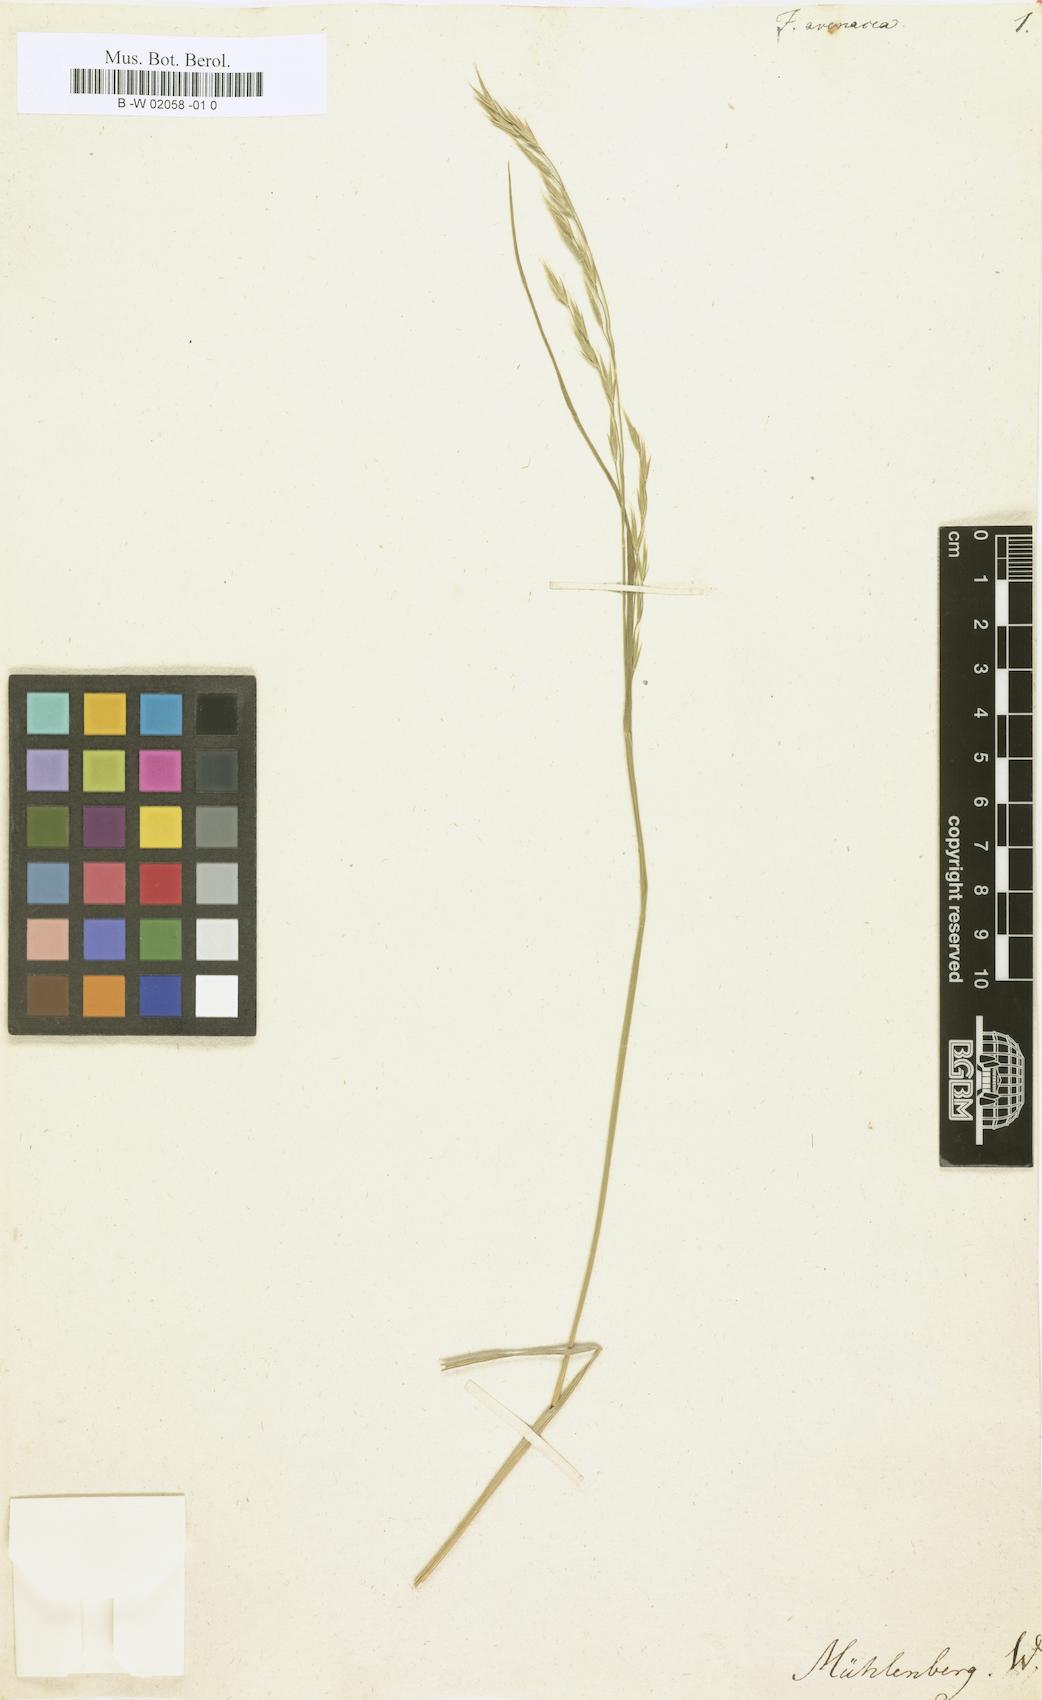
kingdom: Plantae
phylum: Tracheophyta
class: Liliopsida
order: Poales
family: Poaceae
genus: Festuca
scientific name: Festuca
